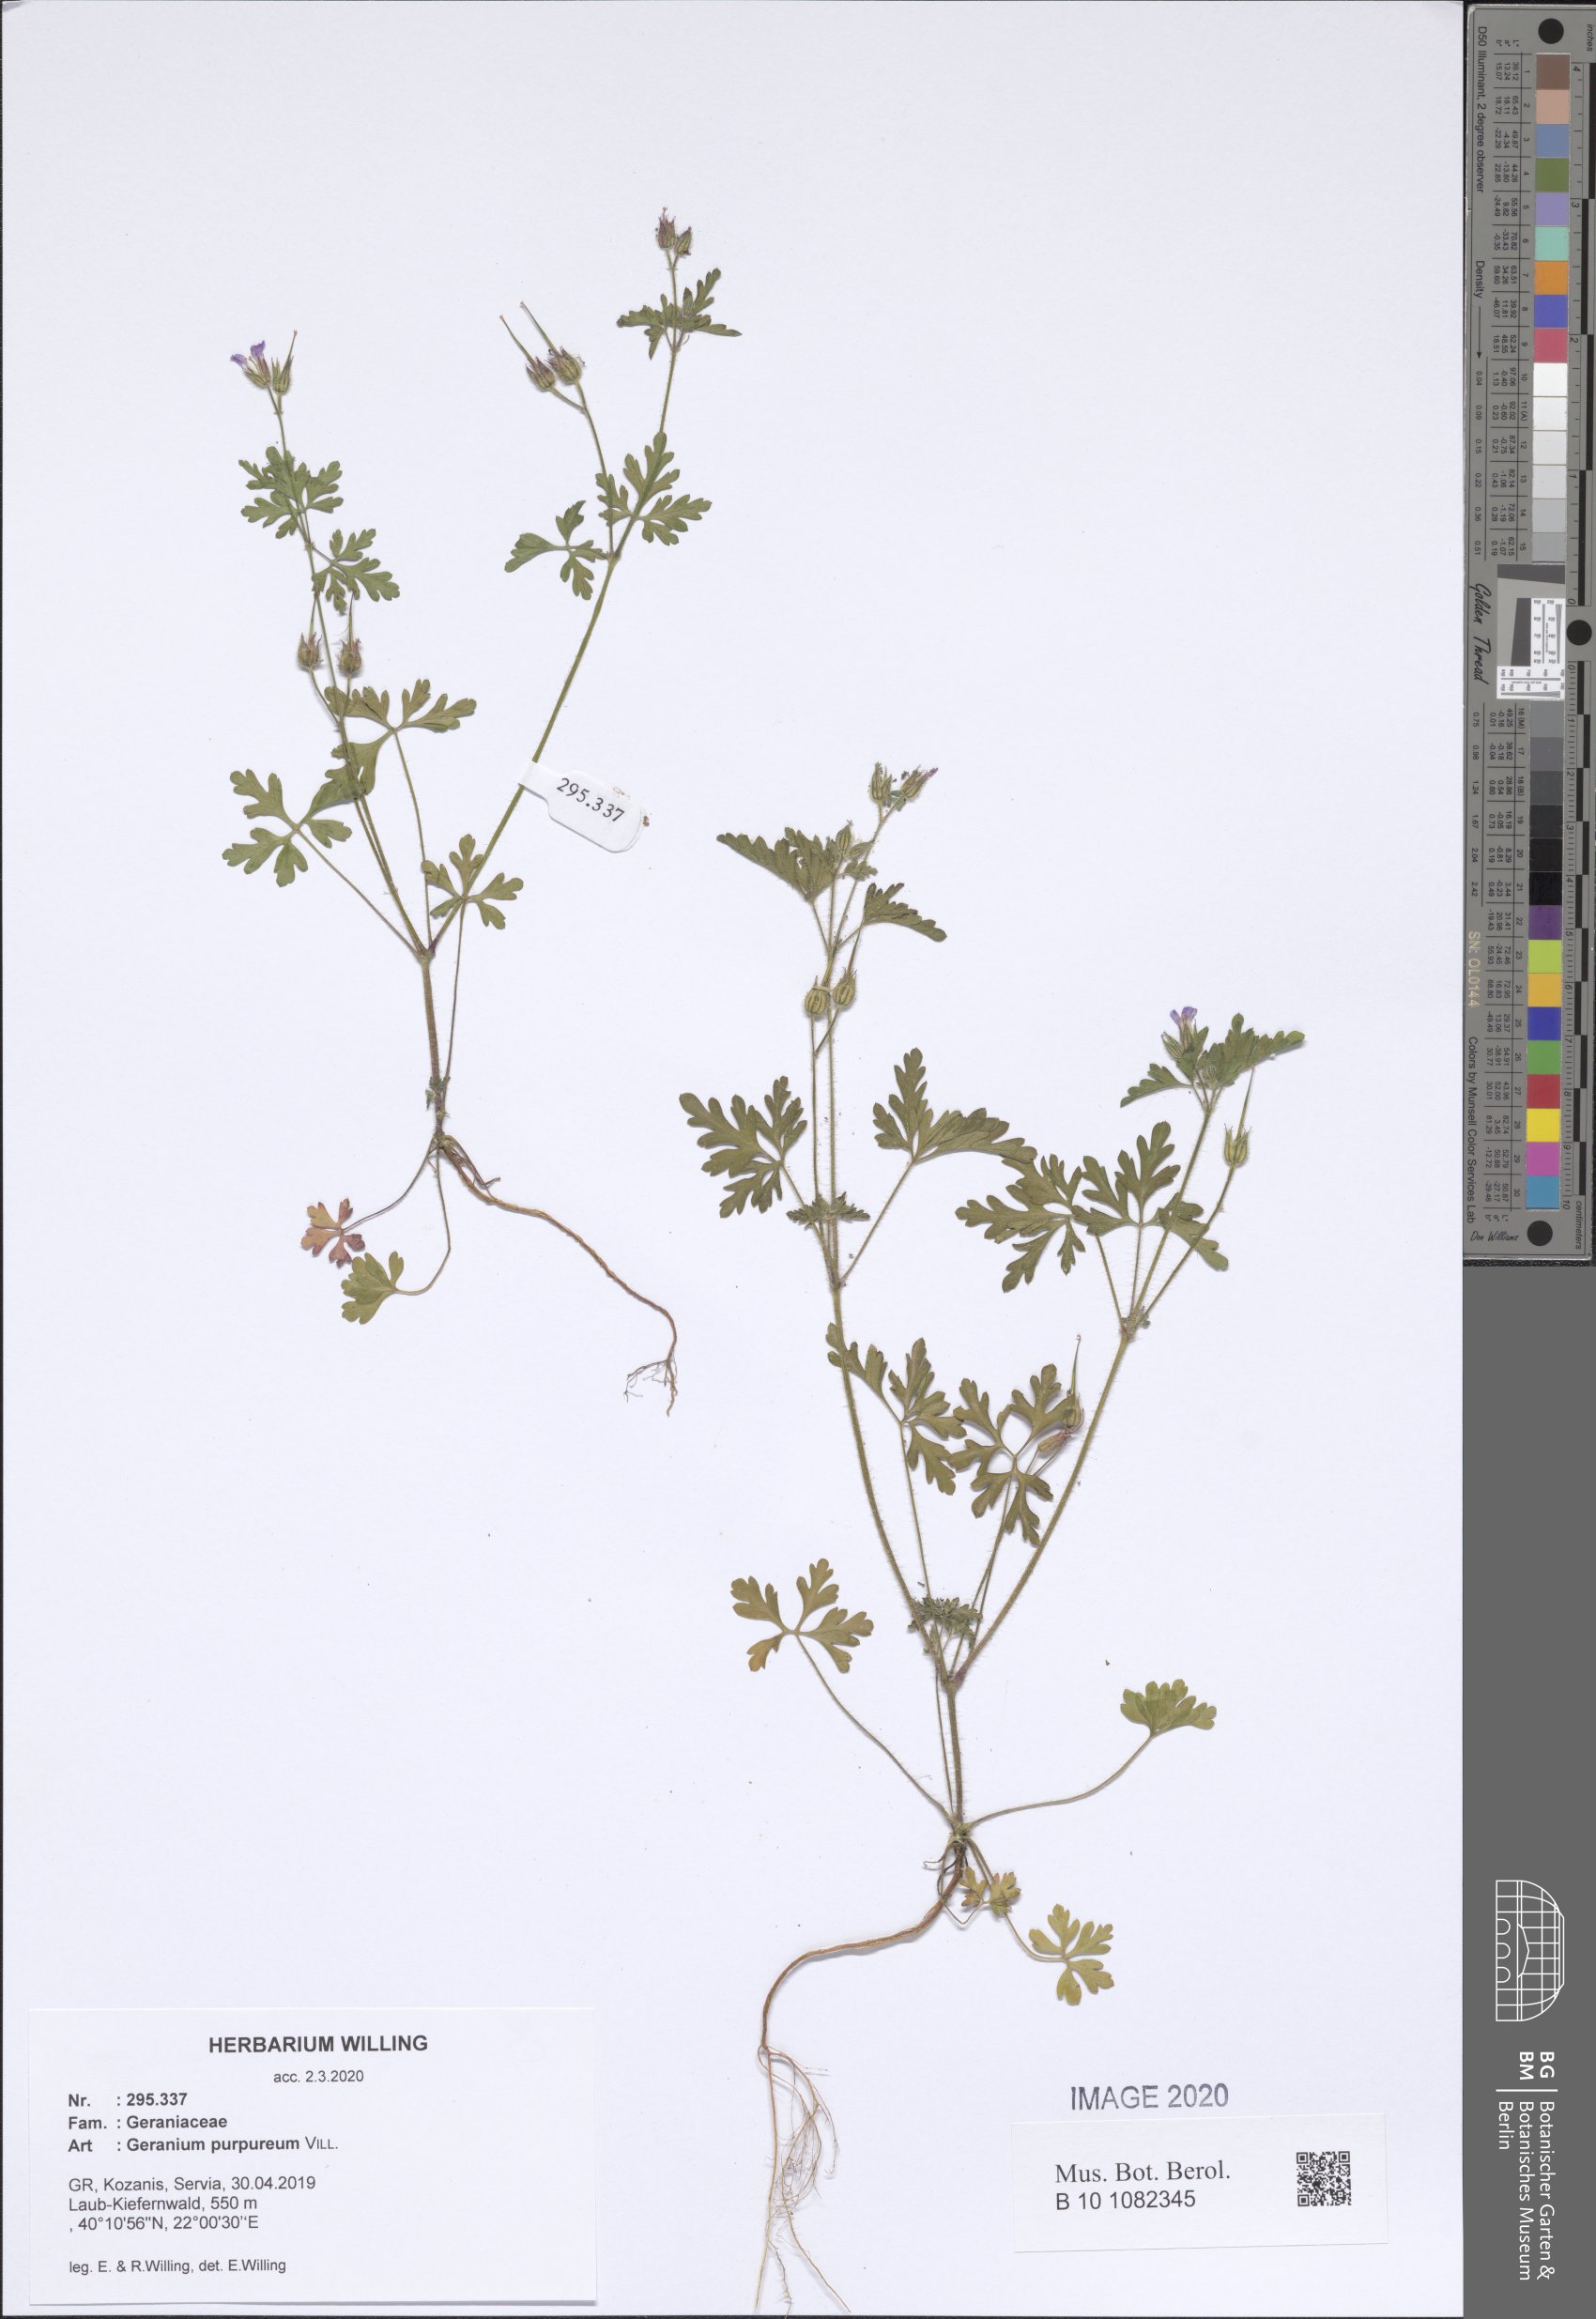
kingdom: Plantae
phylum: Tracheophyta
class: Magnoliopsida
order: Geraniales
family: Geraniaceae
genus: Geranium
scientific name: Geranium purpureum
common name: Little-robin
